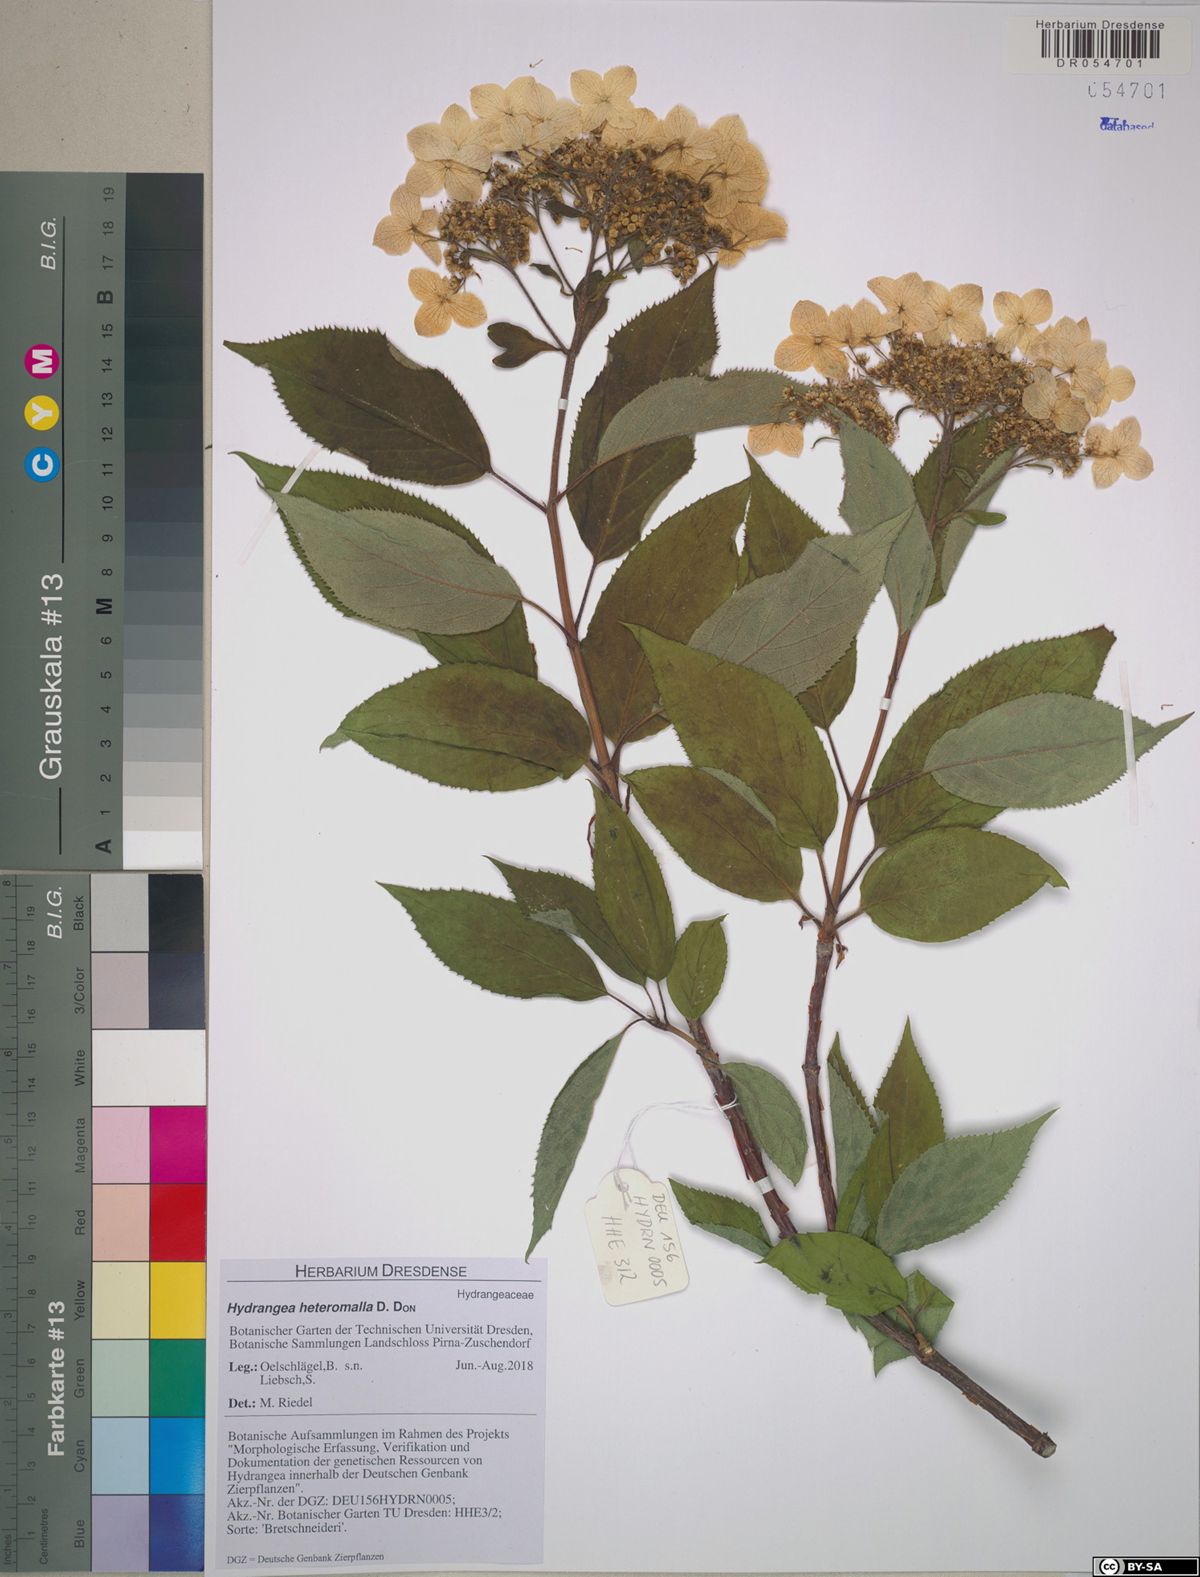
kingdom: Plantae
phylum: Tracheophyta
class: Magnoliopsida
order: Cornales
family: Hydrangeaceae
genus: Hydrangea
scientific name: Hydrangea heteromalla
